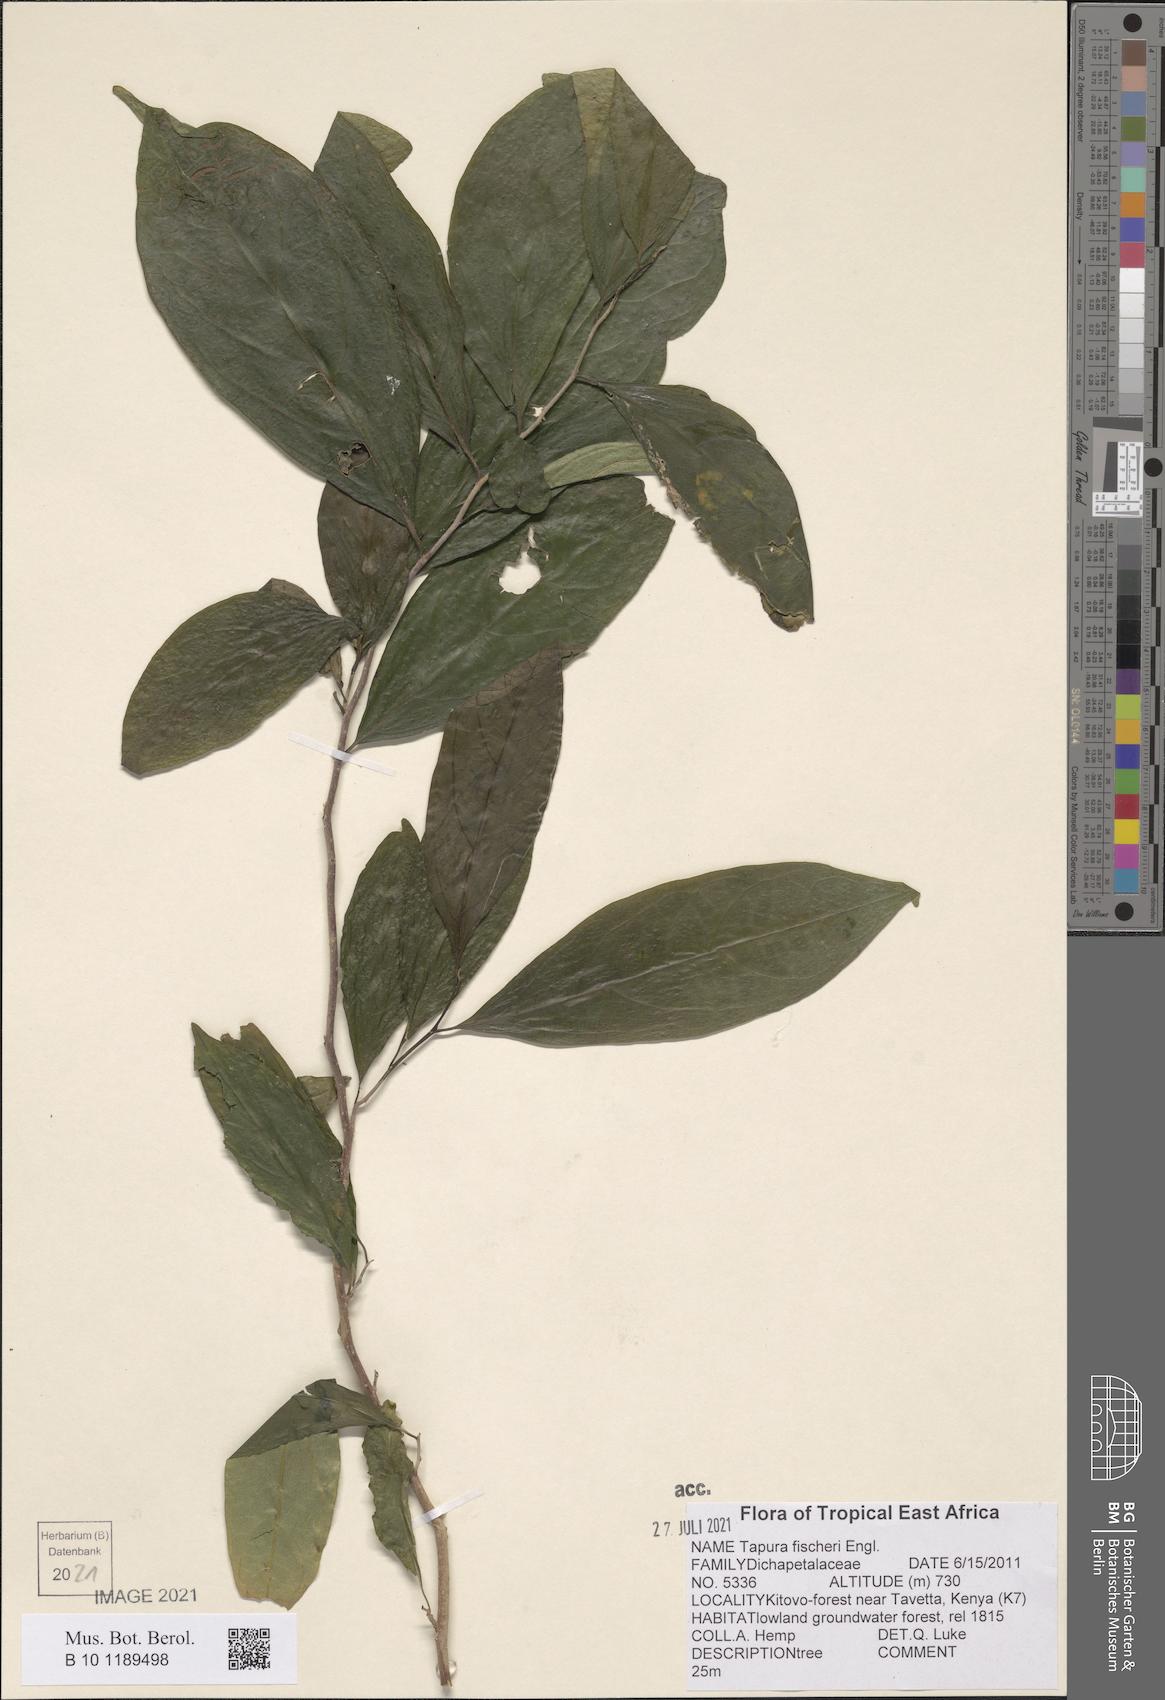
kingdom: Plantae
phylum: Tracheophyta
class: Magnoliopsida
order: Malpighiales
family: Dichapetalaceae
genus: Tapura
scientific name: Tapura fischeri
